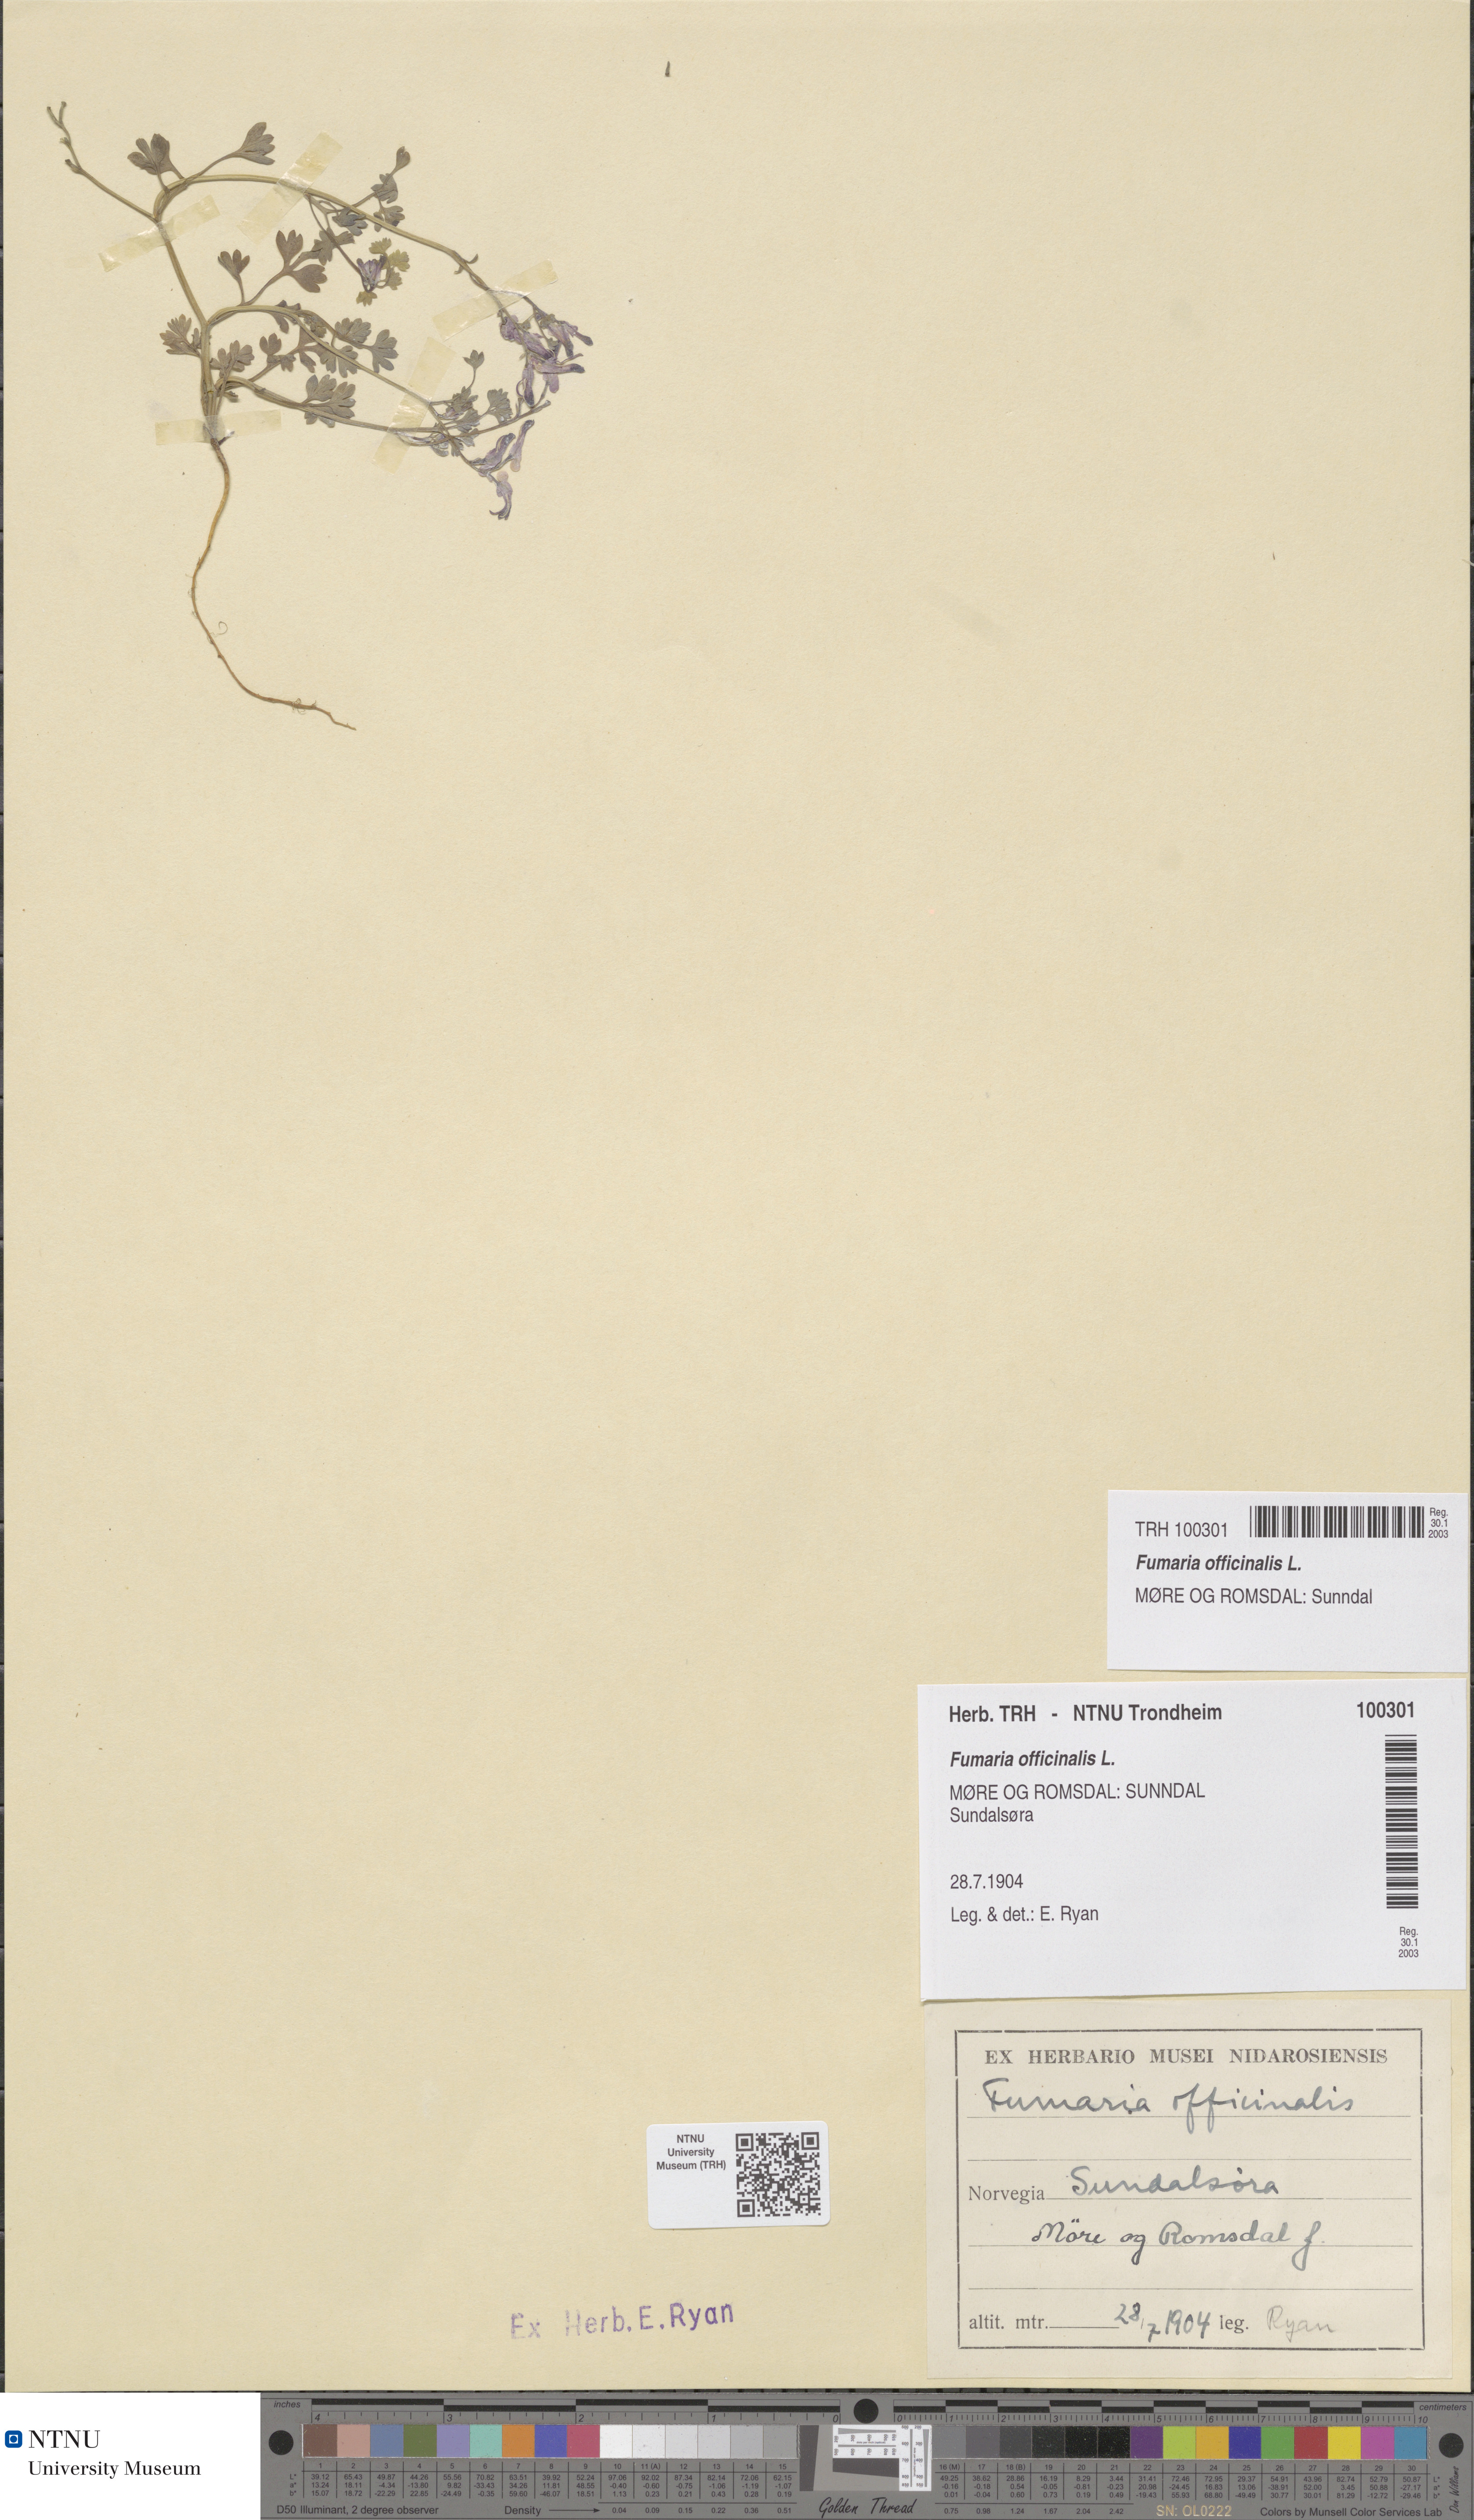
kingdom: Plantae
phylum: Tracheophyta
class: Magnoliopsida
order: Ranunculales
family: Papaveraceae
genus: Fumaria
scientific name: Fumaria officinalis
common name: Common fumitory
